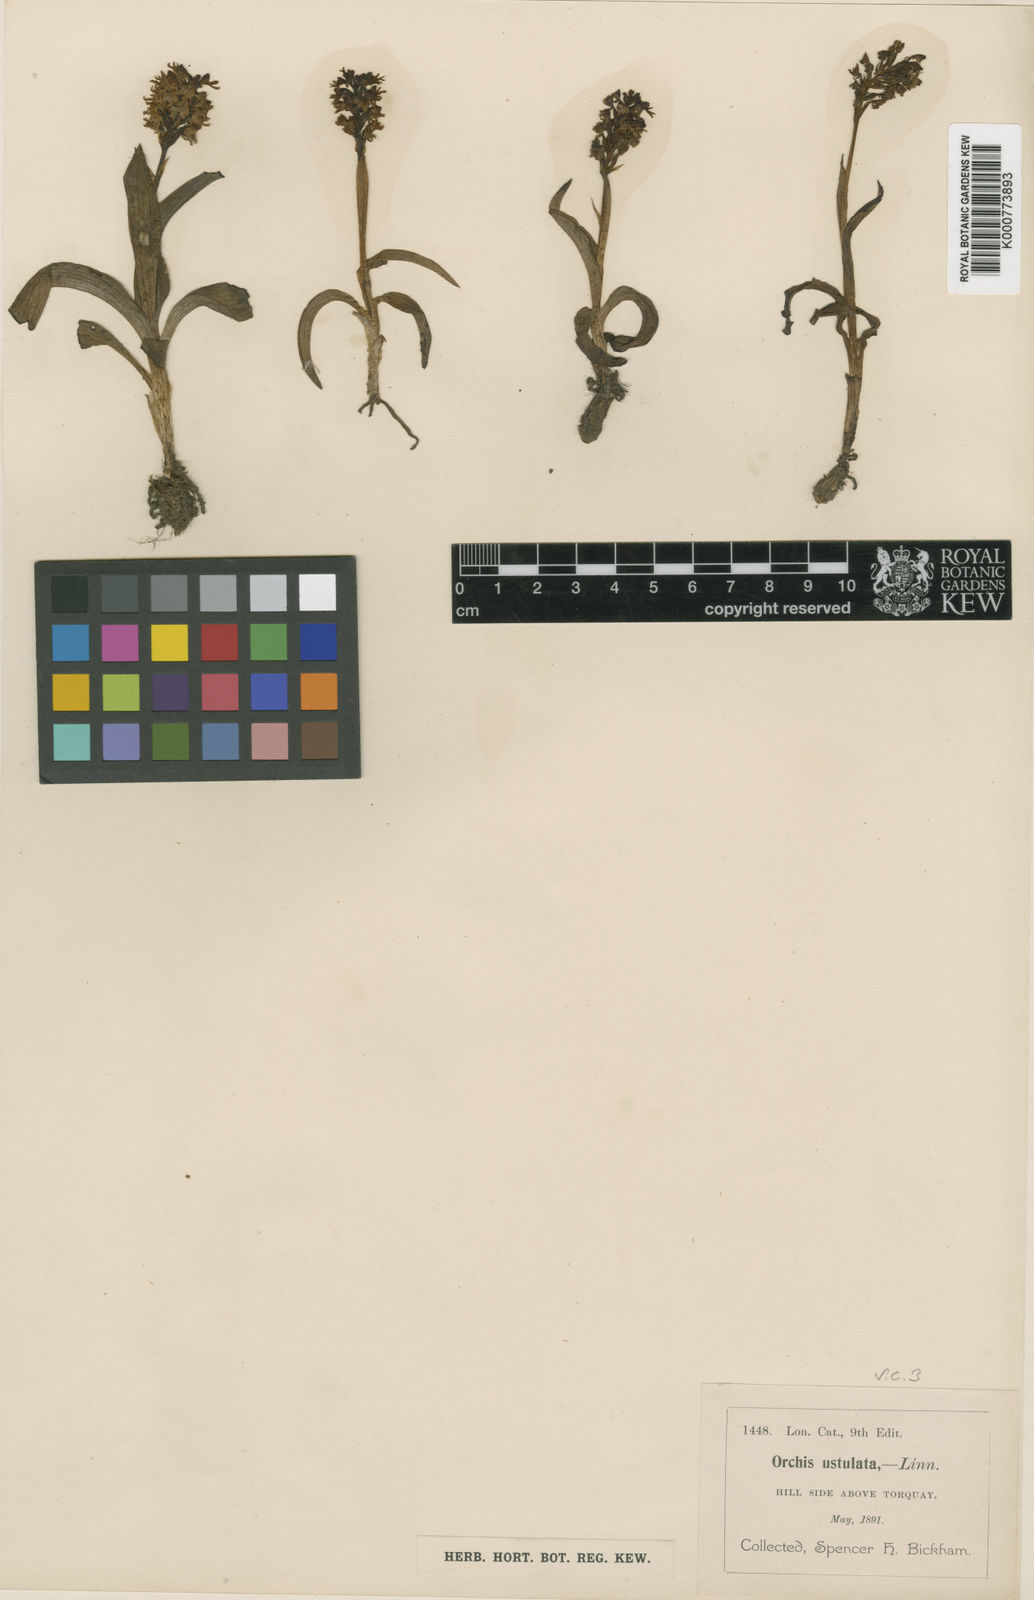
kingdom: Plantae
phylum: Tracheophyta
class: Liliopsida
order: Asparagales
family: Orchidaceae
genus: Neotinea
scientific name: Neotinea ustulata
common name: Burnt orchid
